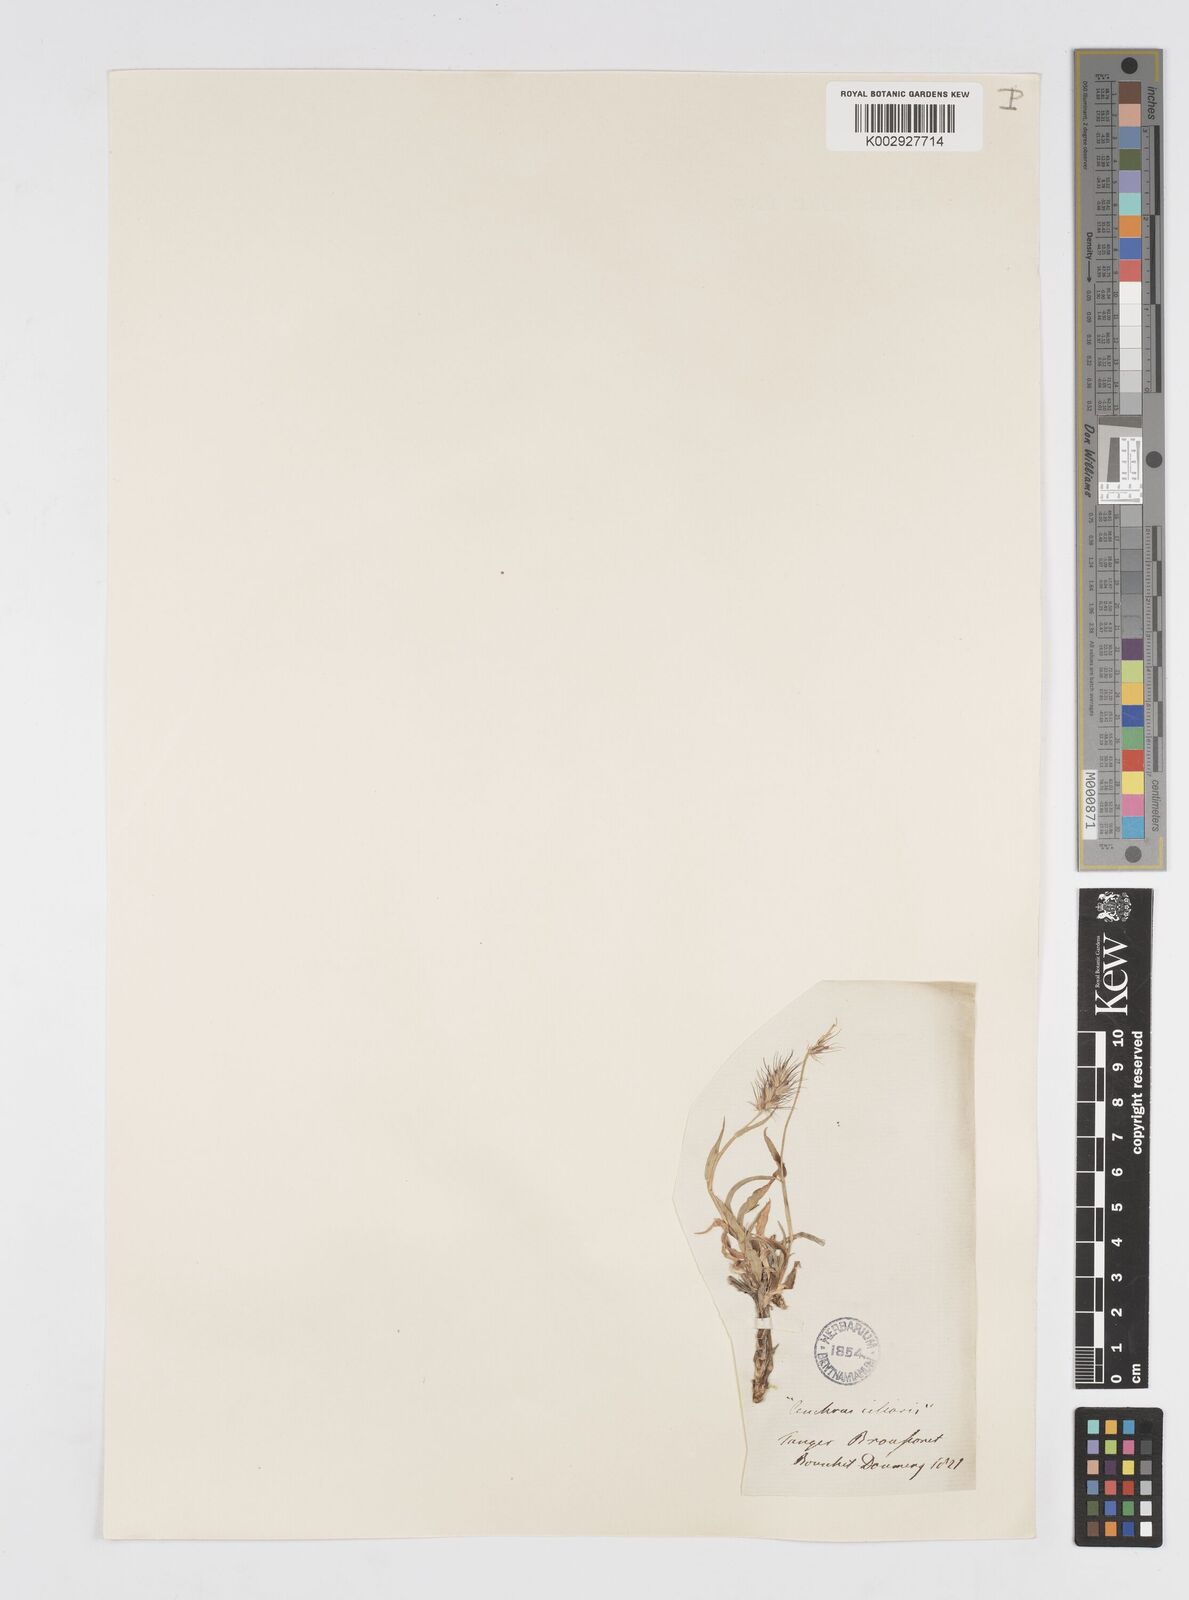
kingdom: Plantae
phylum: Tracheophyta
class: Liliopsida
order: Poales
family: Poaceae
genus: Cenchrus
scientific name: Cenchrus ciliaris
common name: Buffelgrass
